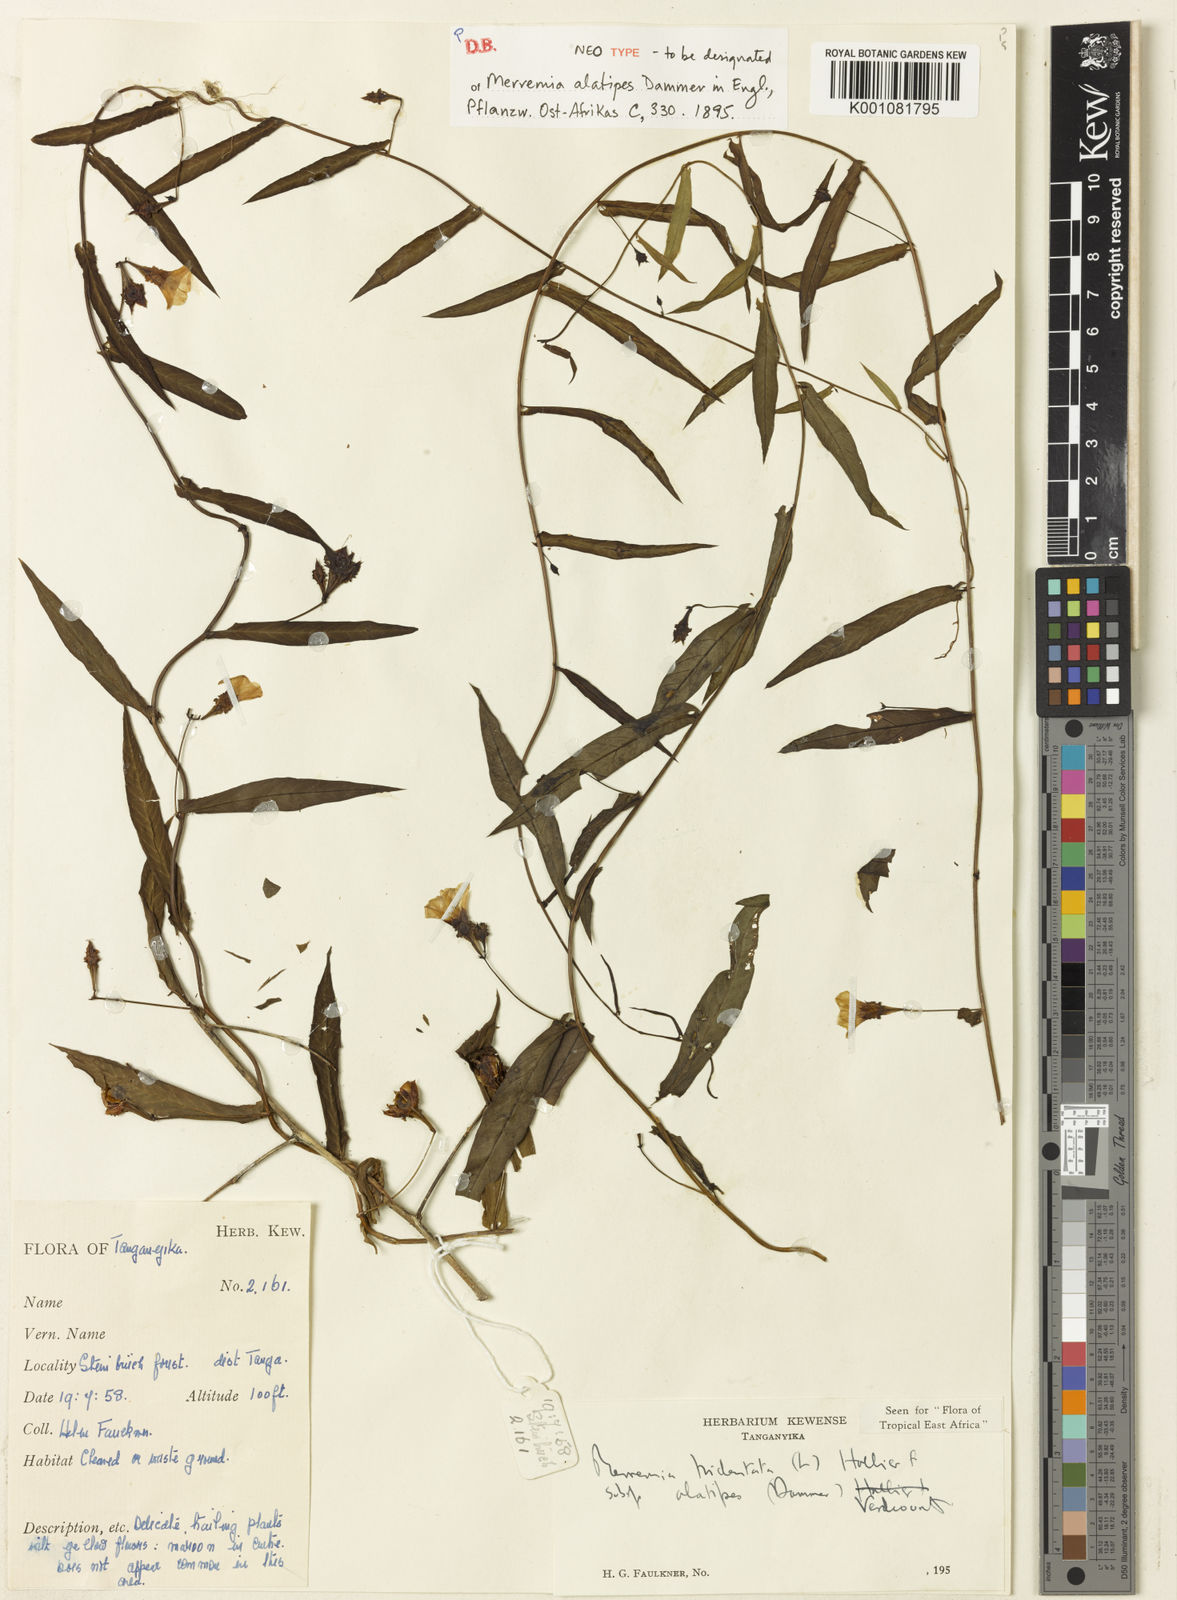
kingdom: Plantae
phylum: Tracheophyta
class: Magnoliopsida
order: Solanales
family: Convolvulaceae
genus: Xenostegia
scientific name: Xenostegia tridentata
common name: African morningvine
